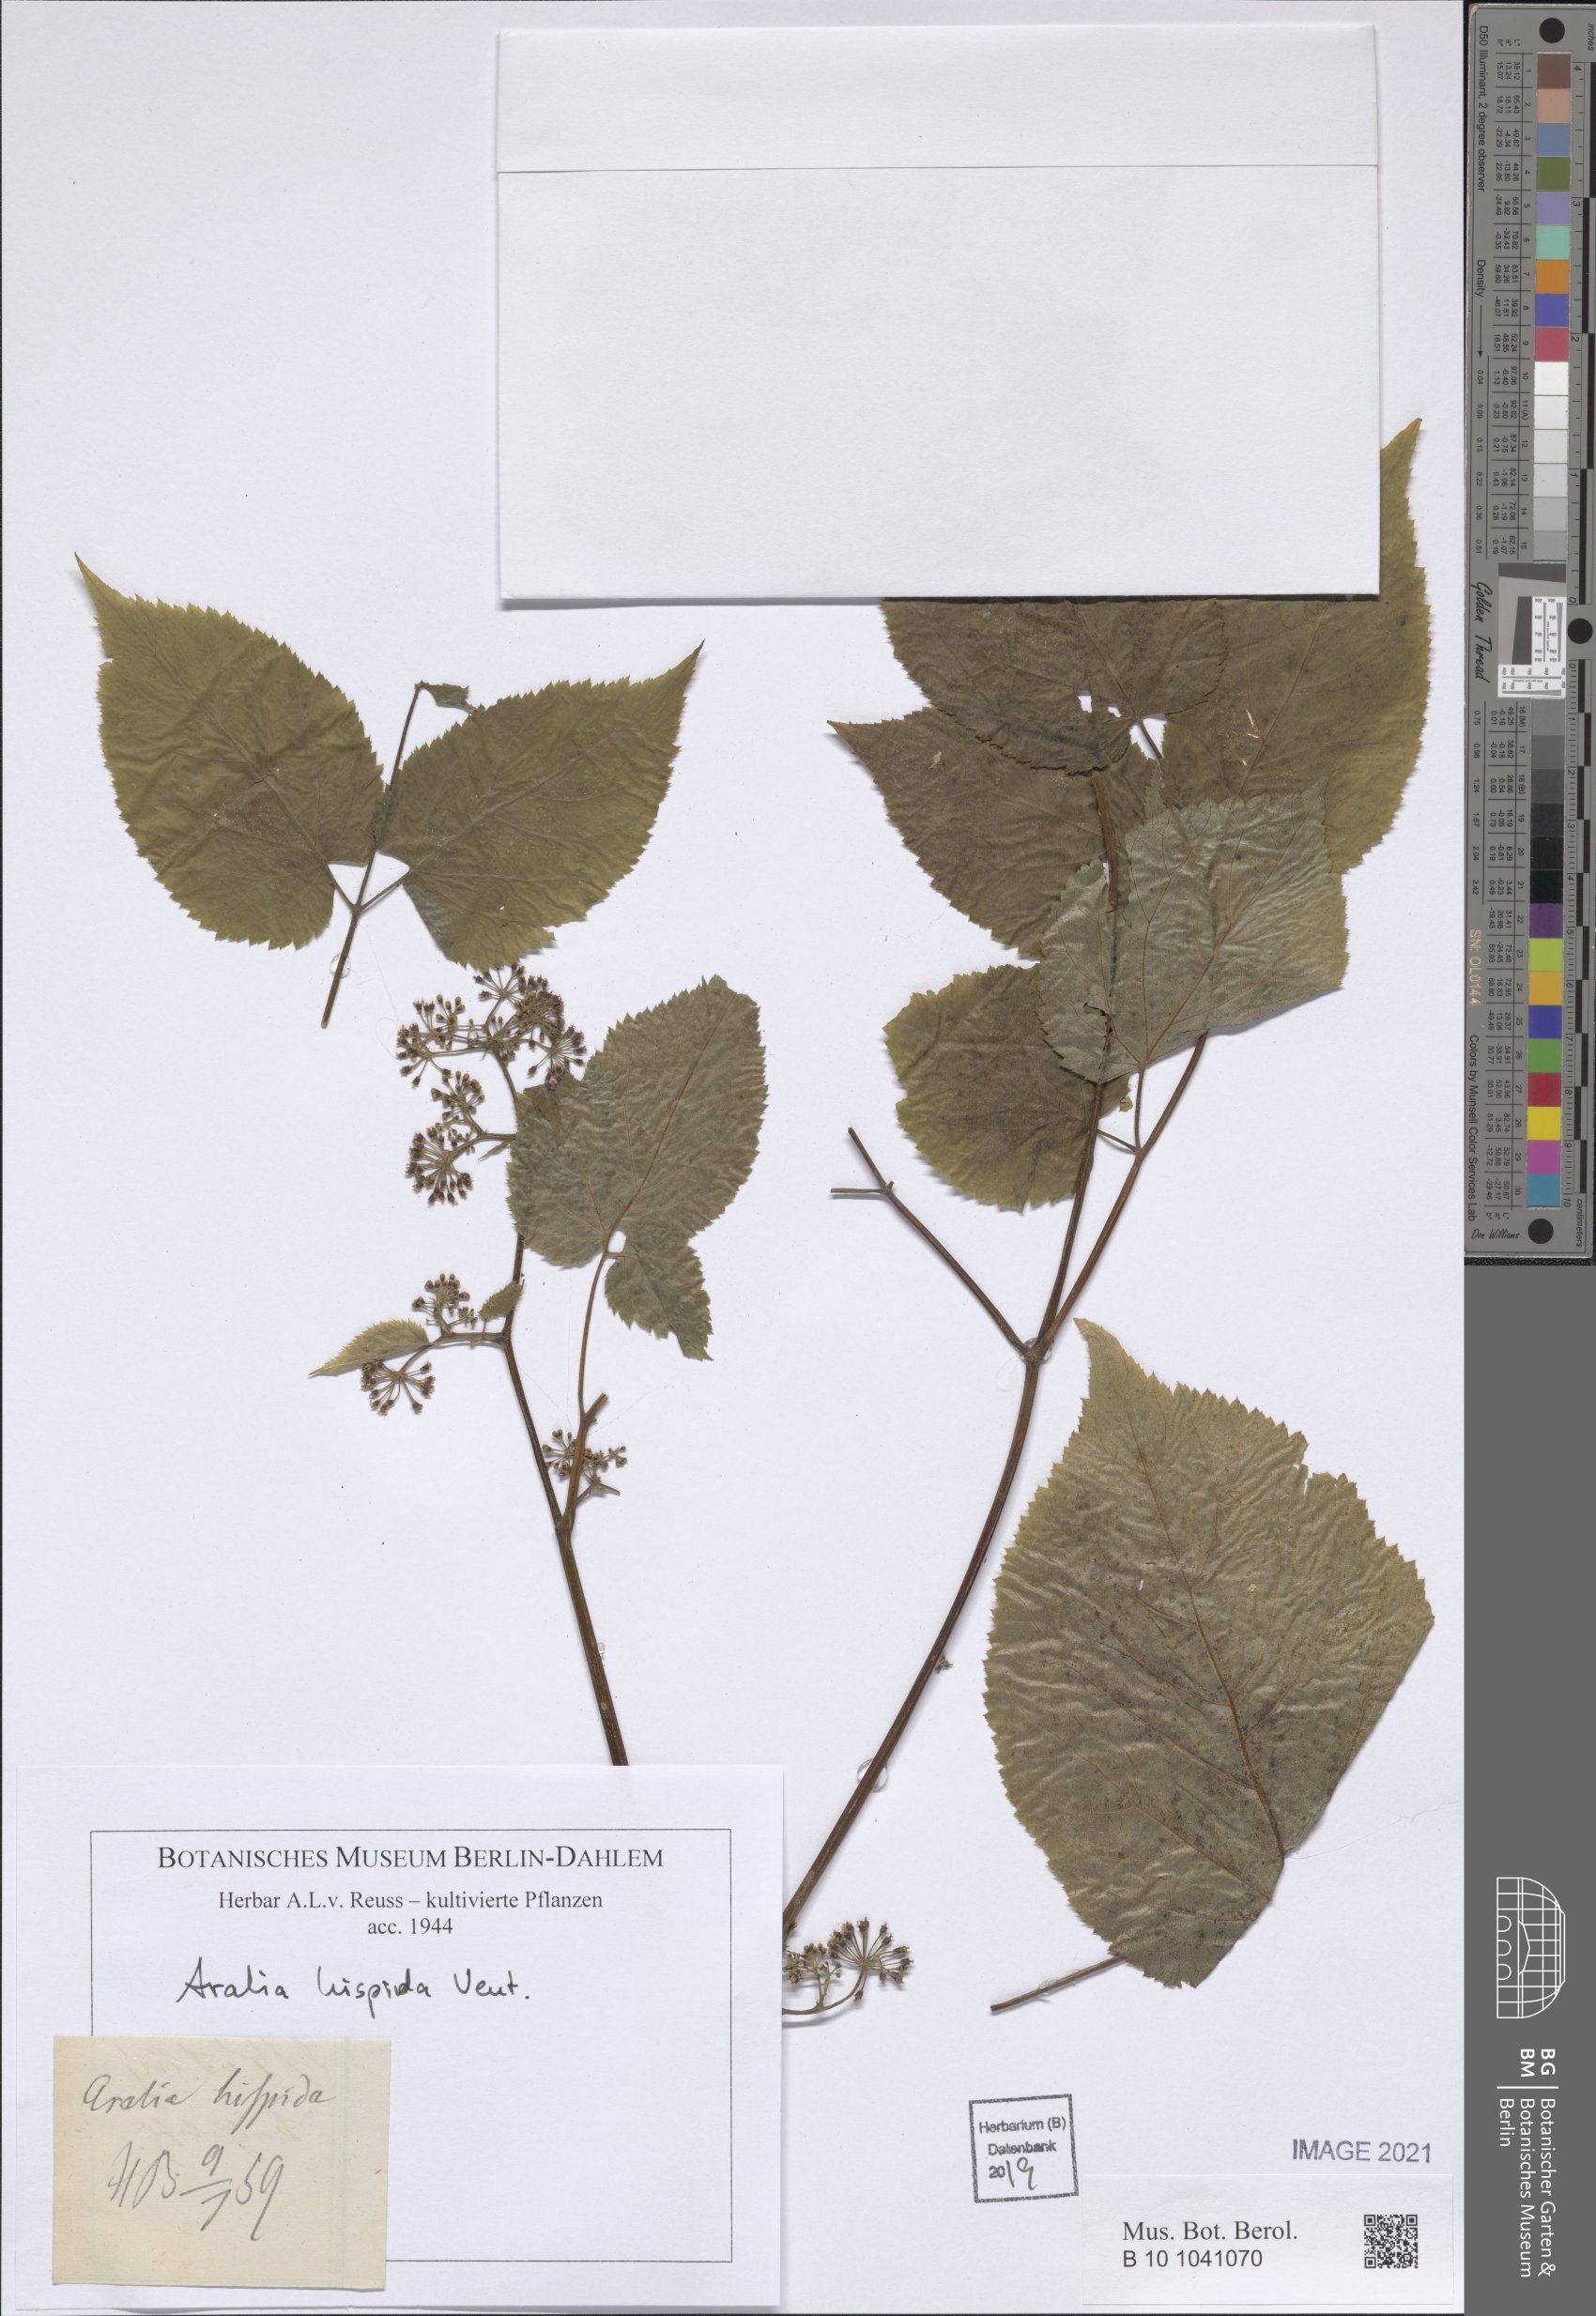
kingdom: Plantae
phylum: Tracheophyta
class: Magnoliopsida
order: Apiales
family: Araliaceae
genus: Aralia
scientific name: Aralia hispida
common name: Bristly sarsaparilla
